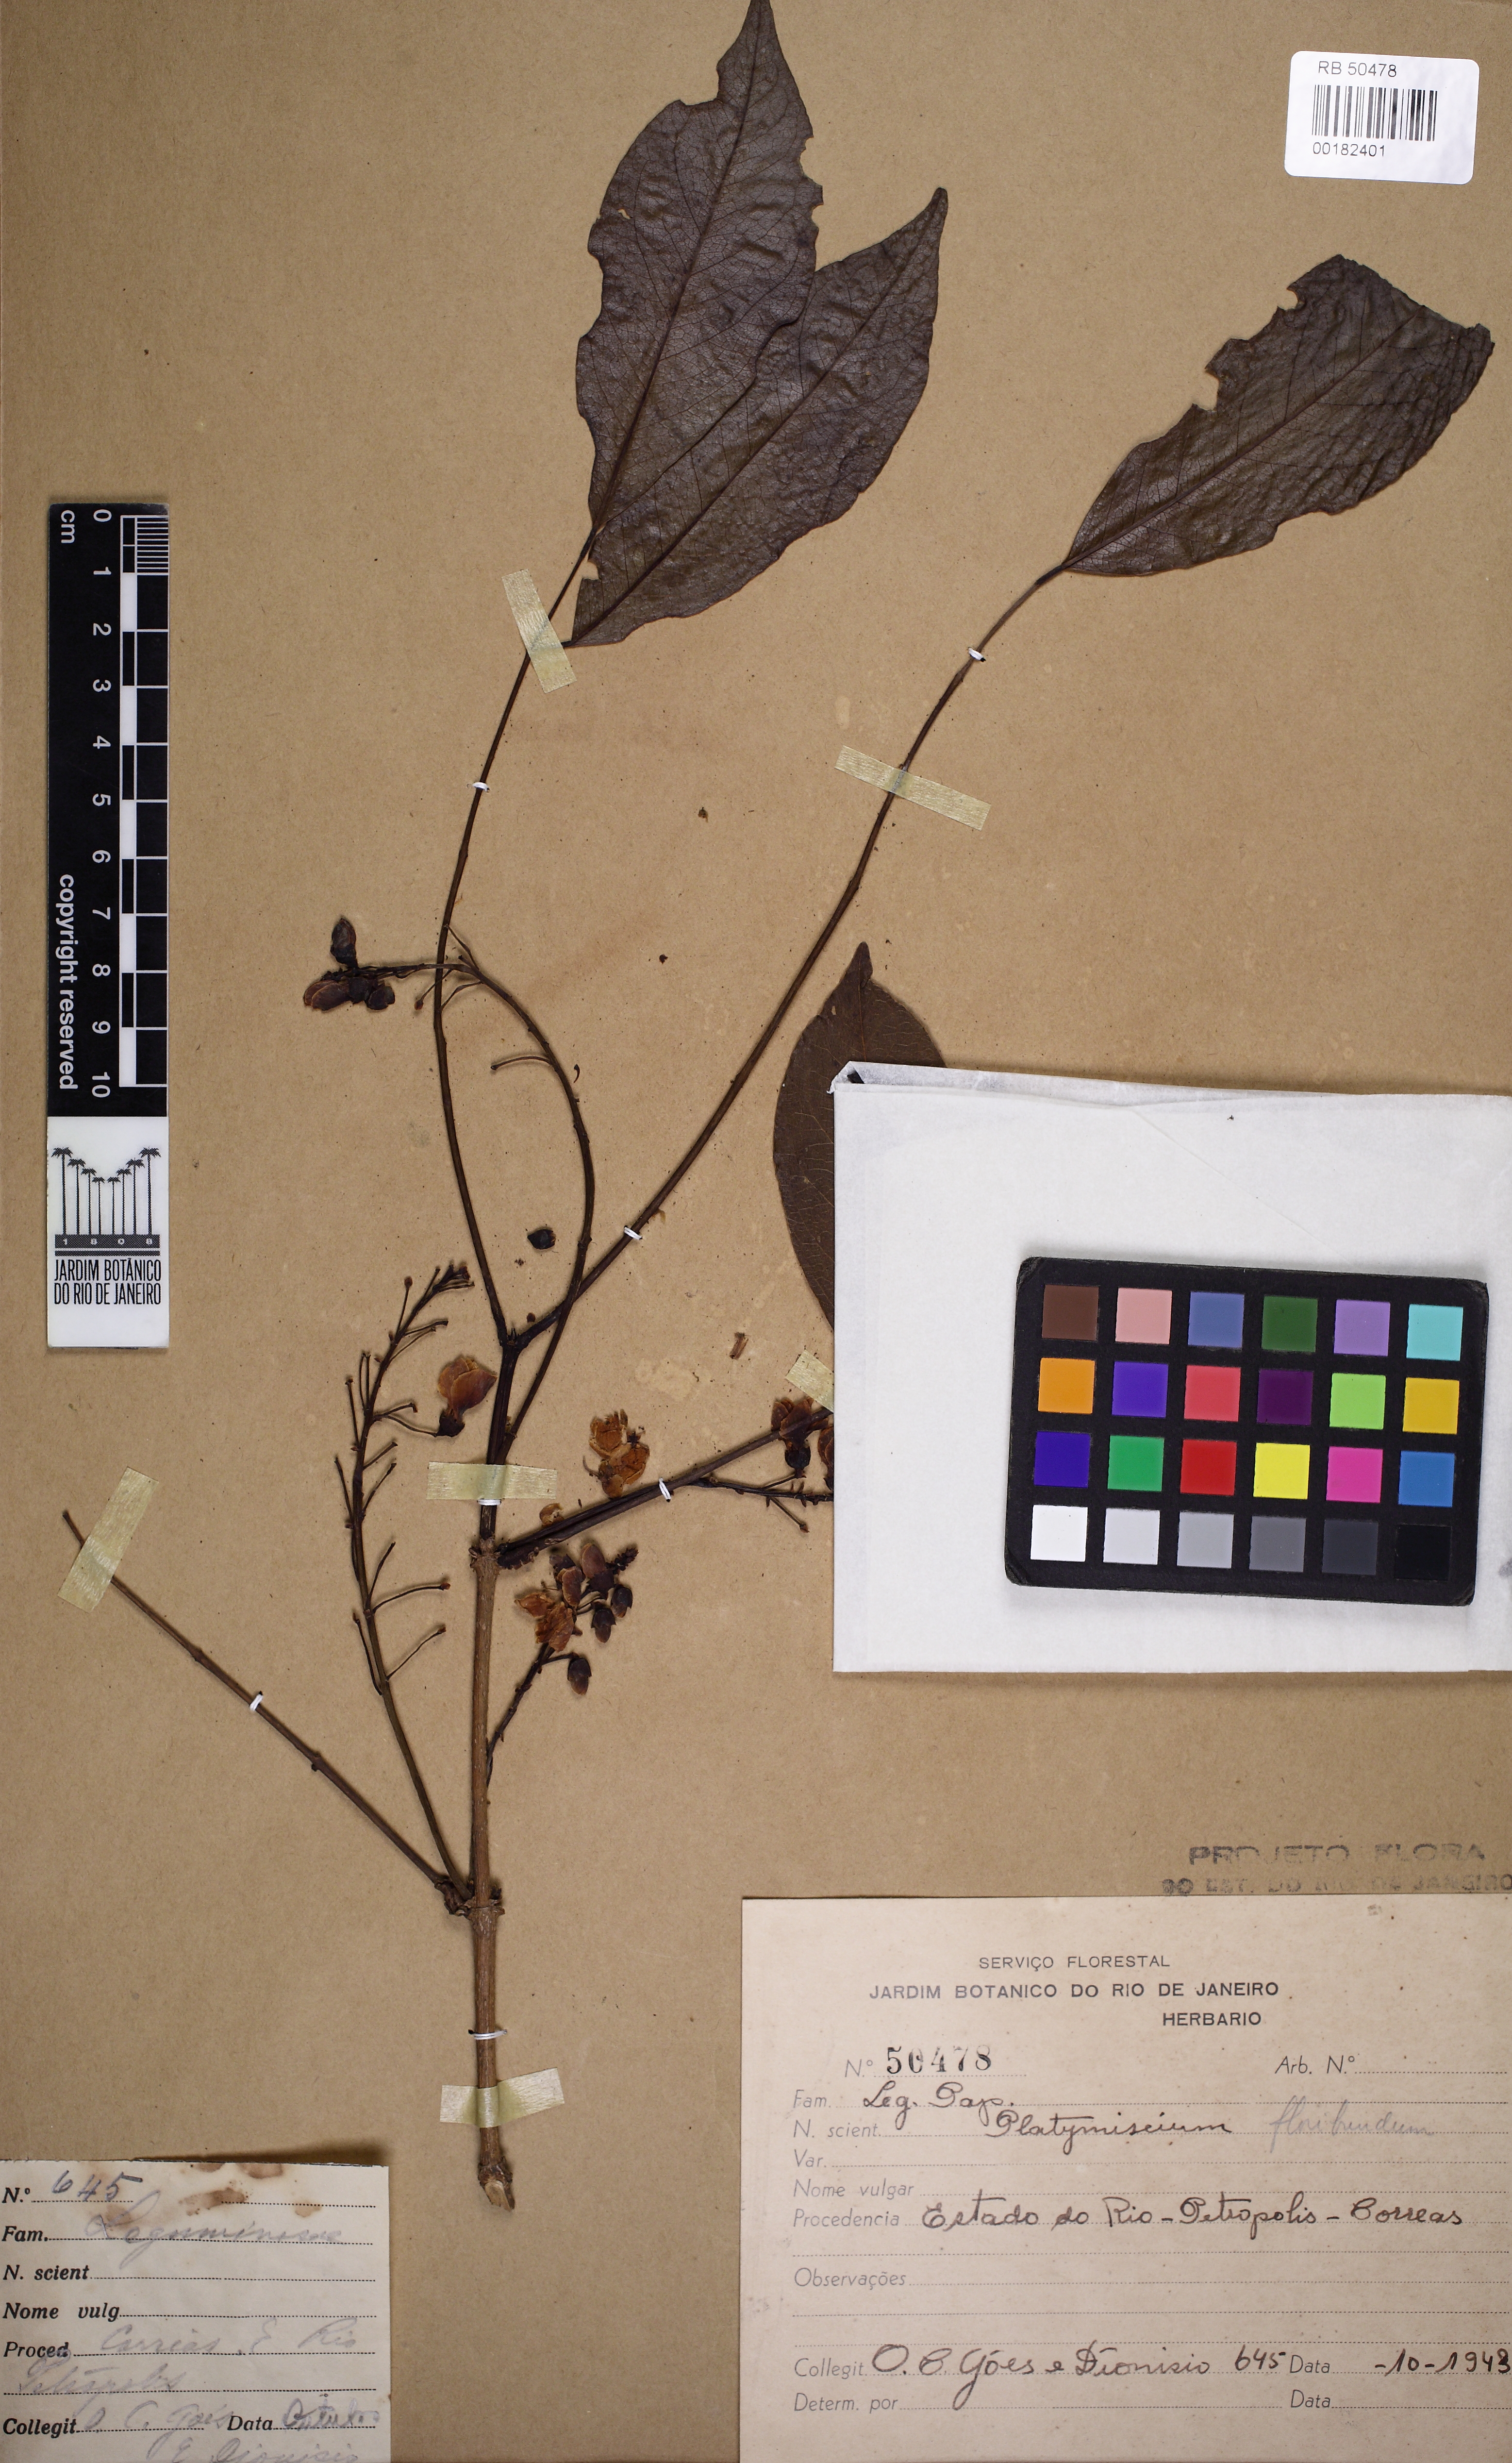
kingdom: Plantae
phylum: Tracheophyta
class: Magnoliopsida
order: Fabales
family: Fabaceae
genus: Platymiscium
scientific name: Platymiscium floribundum
